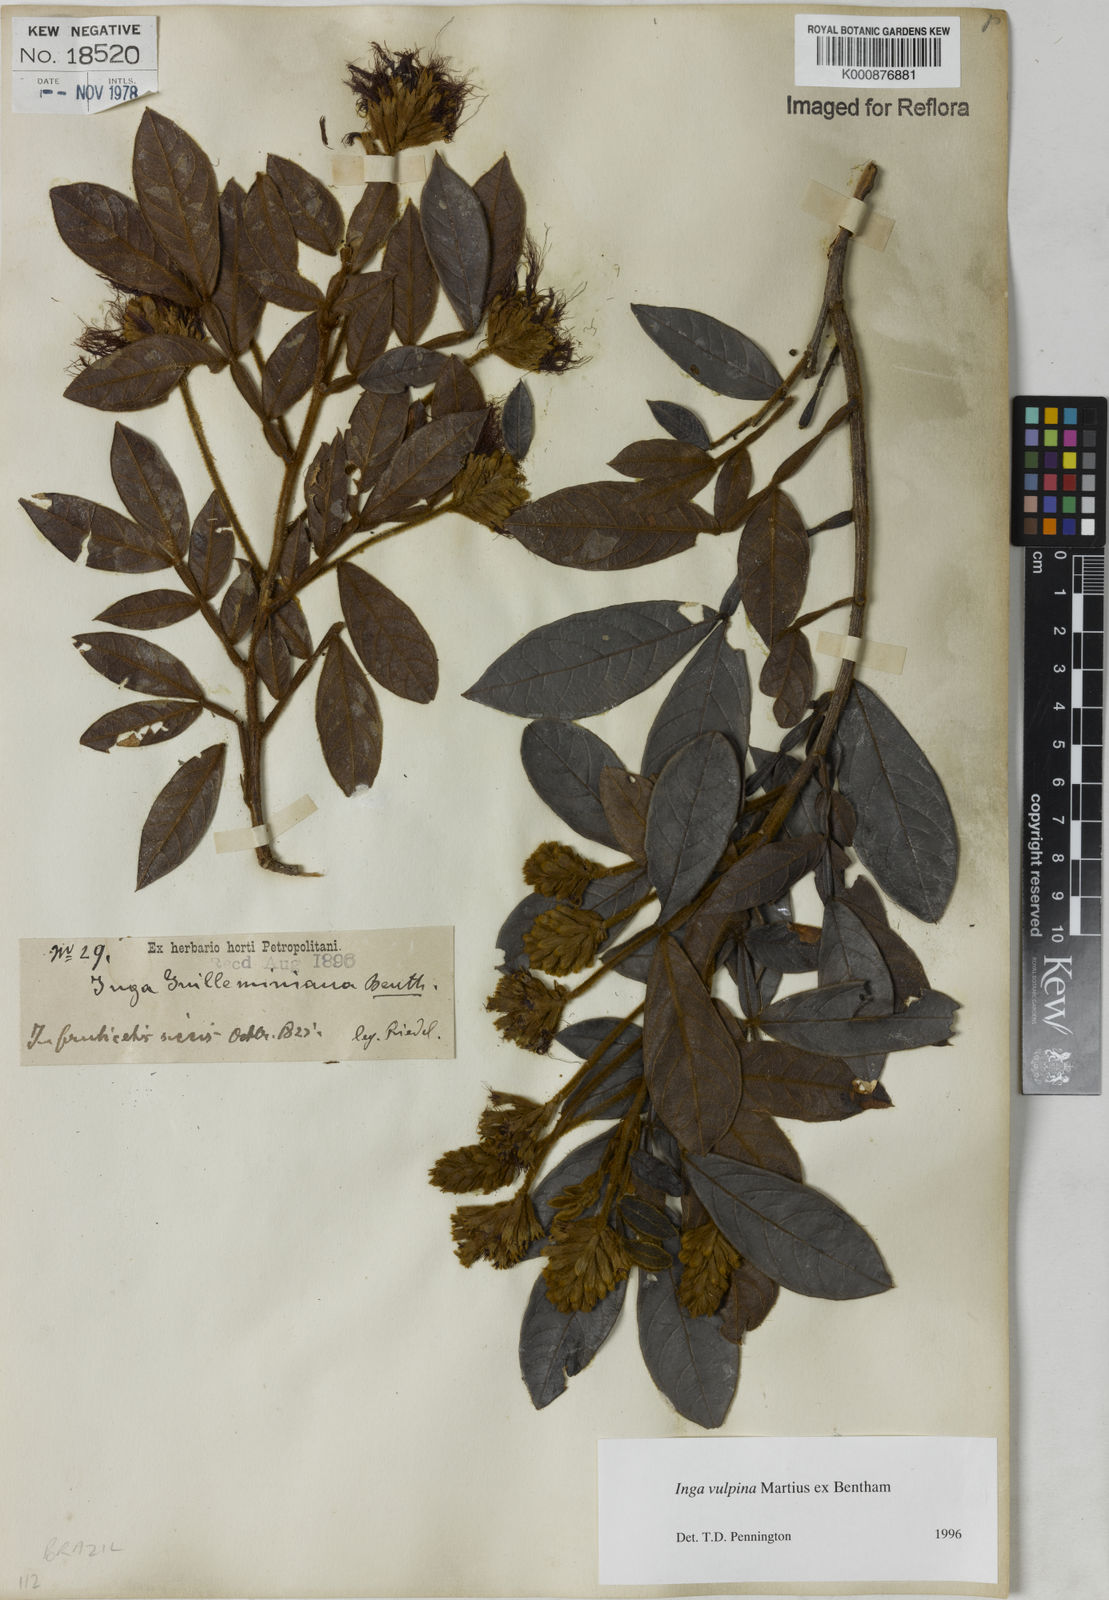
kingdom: Plantae
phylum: Tracheophyta
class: Magnoliopsida
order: Fabales
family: Fabaceae
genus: Inga
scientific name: Inga vulpina
